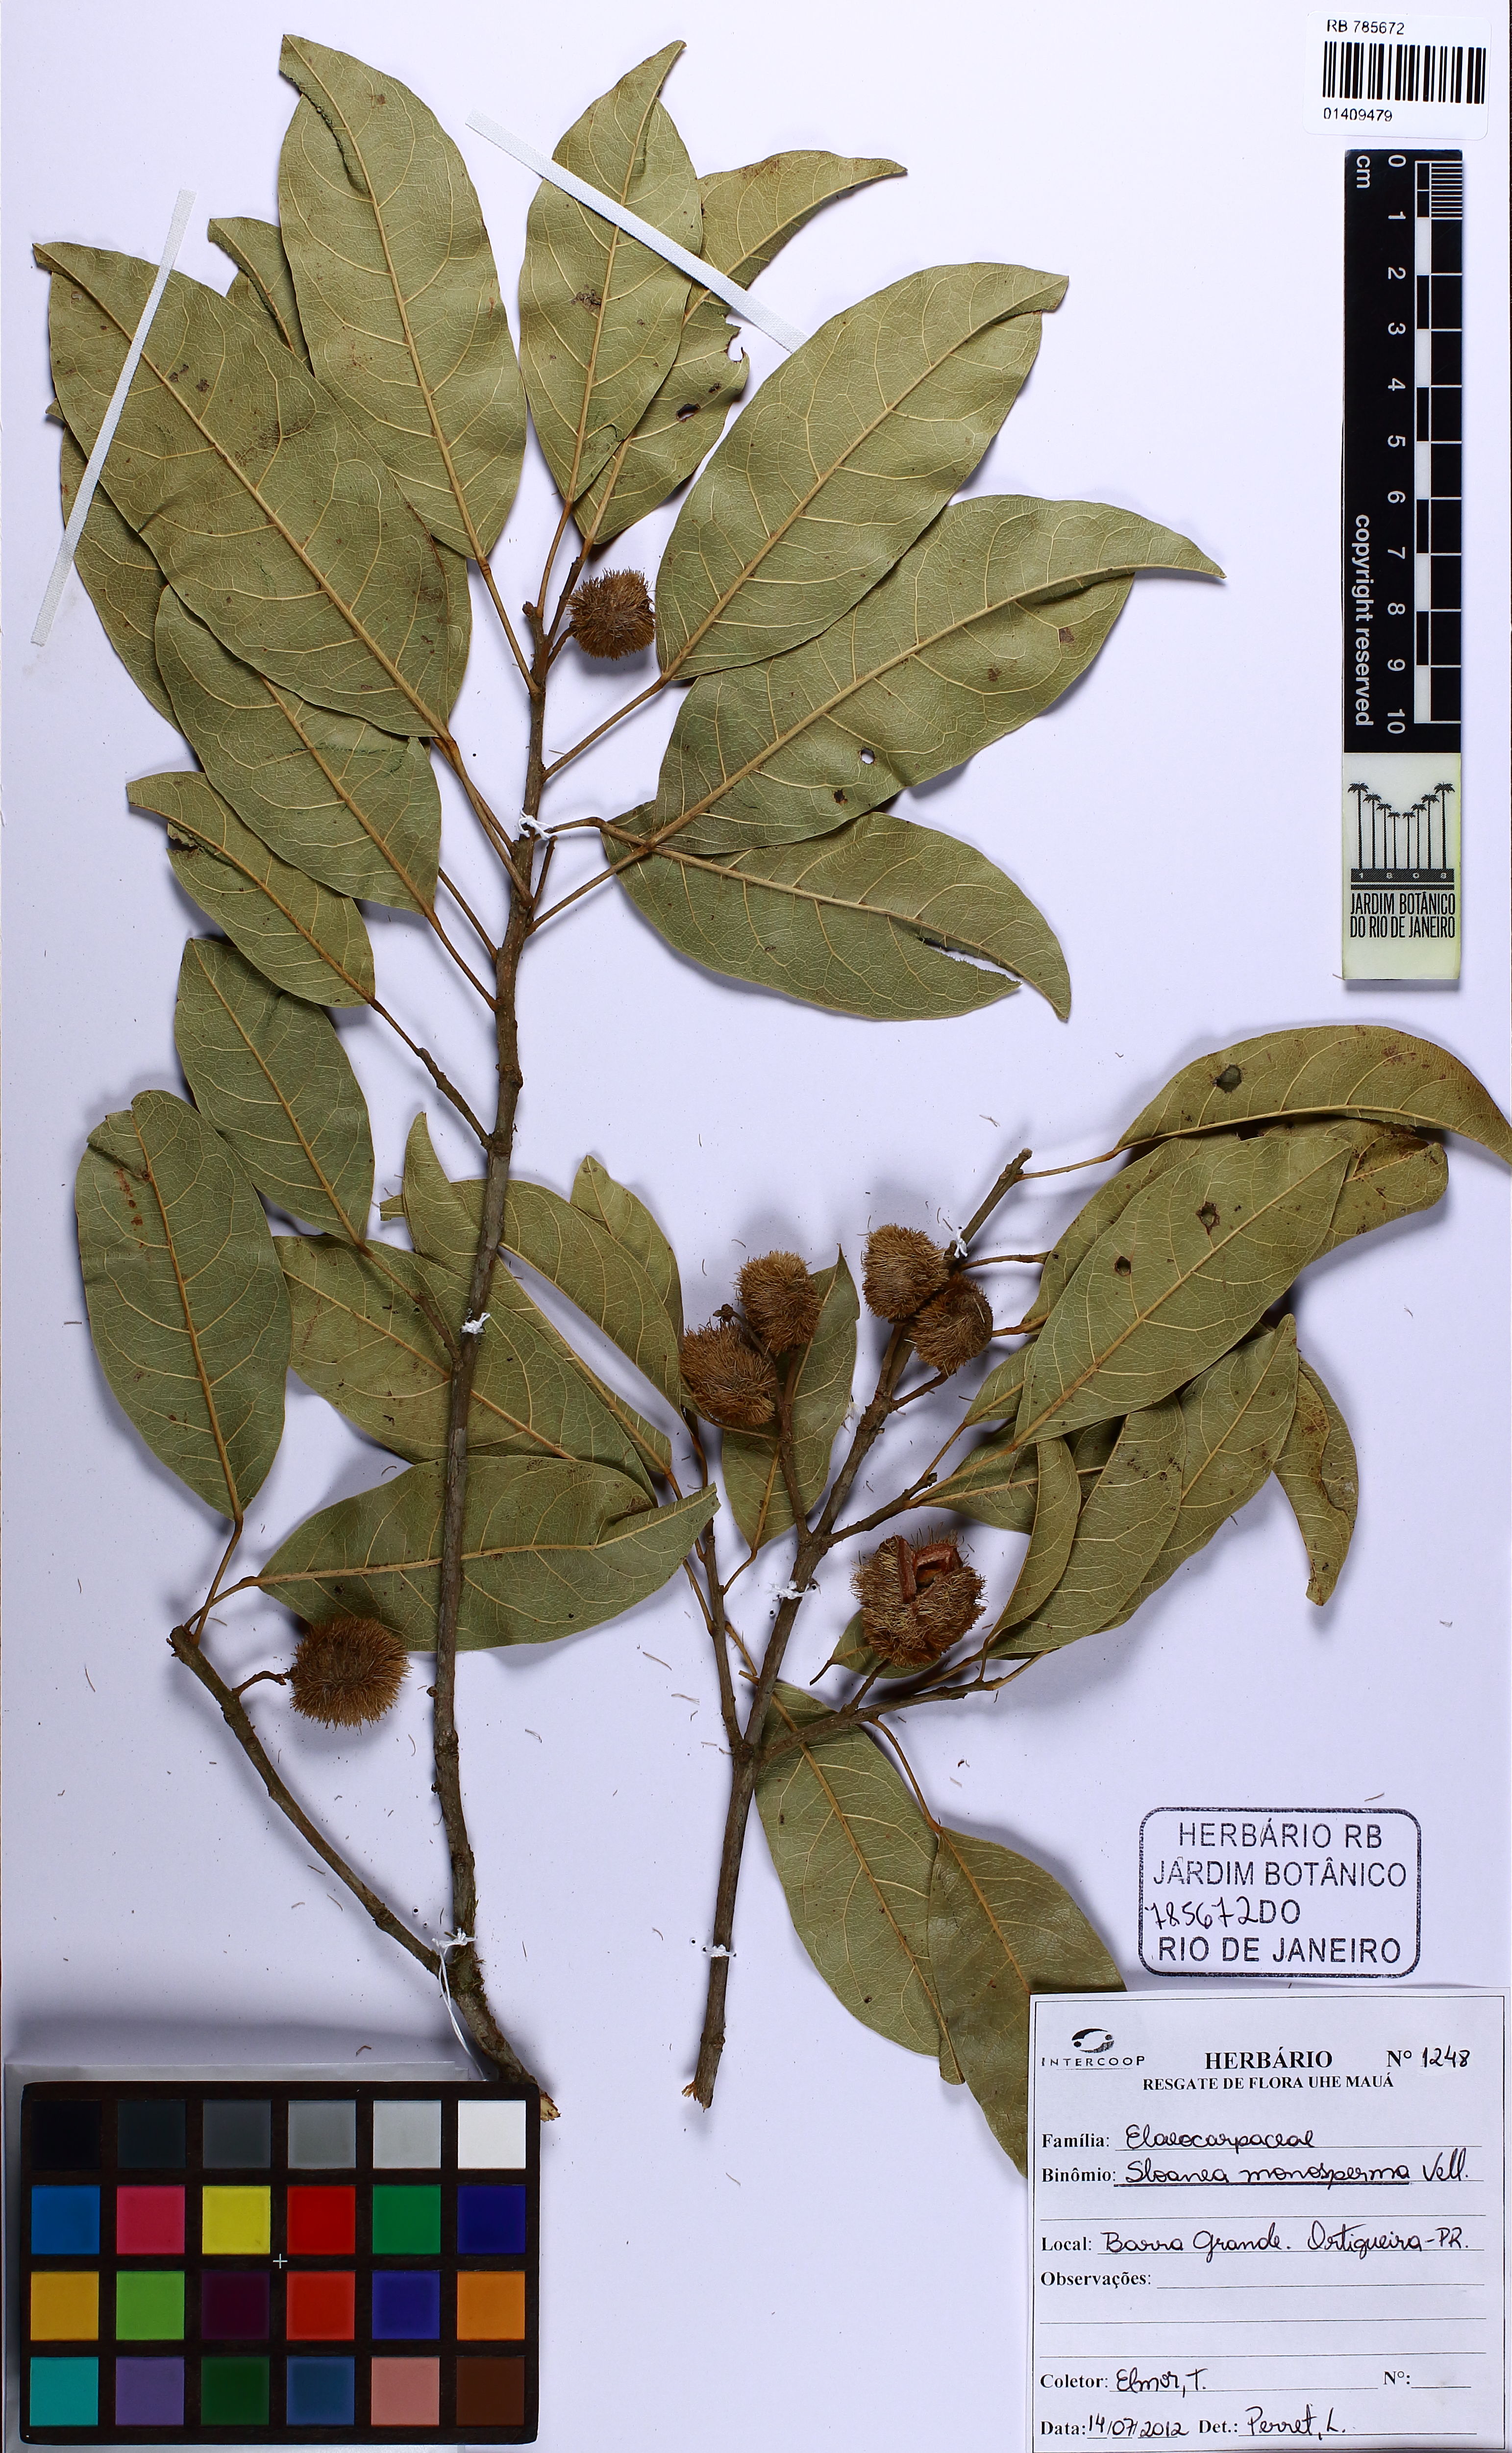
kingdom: Plantae
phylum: Tracheophyta
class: Magnoliopsida
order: Oxalidales
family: Elaeocarpaceae
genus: Sloanea
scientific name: Sloanea hirsuta
